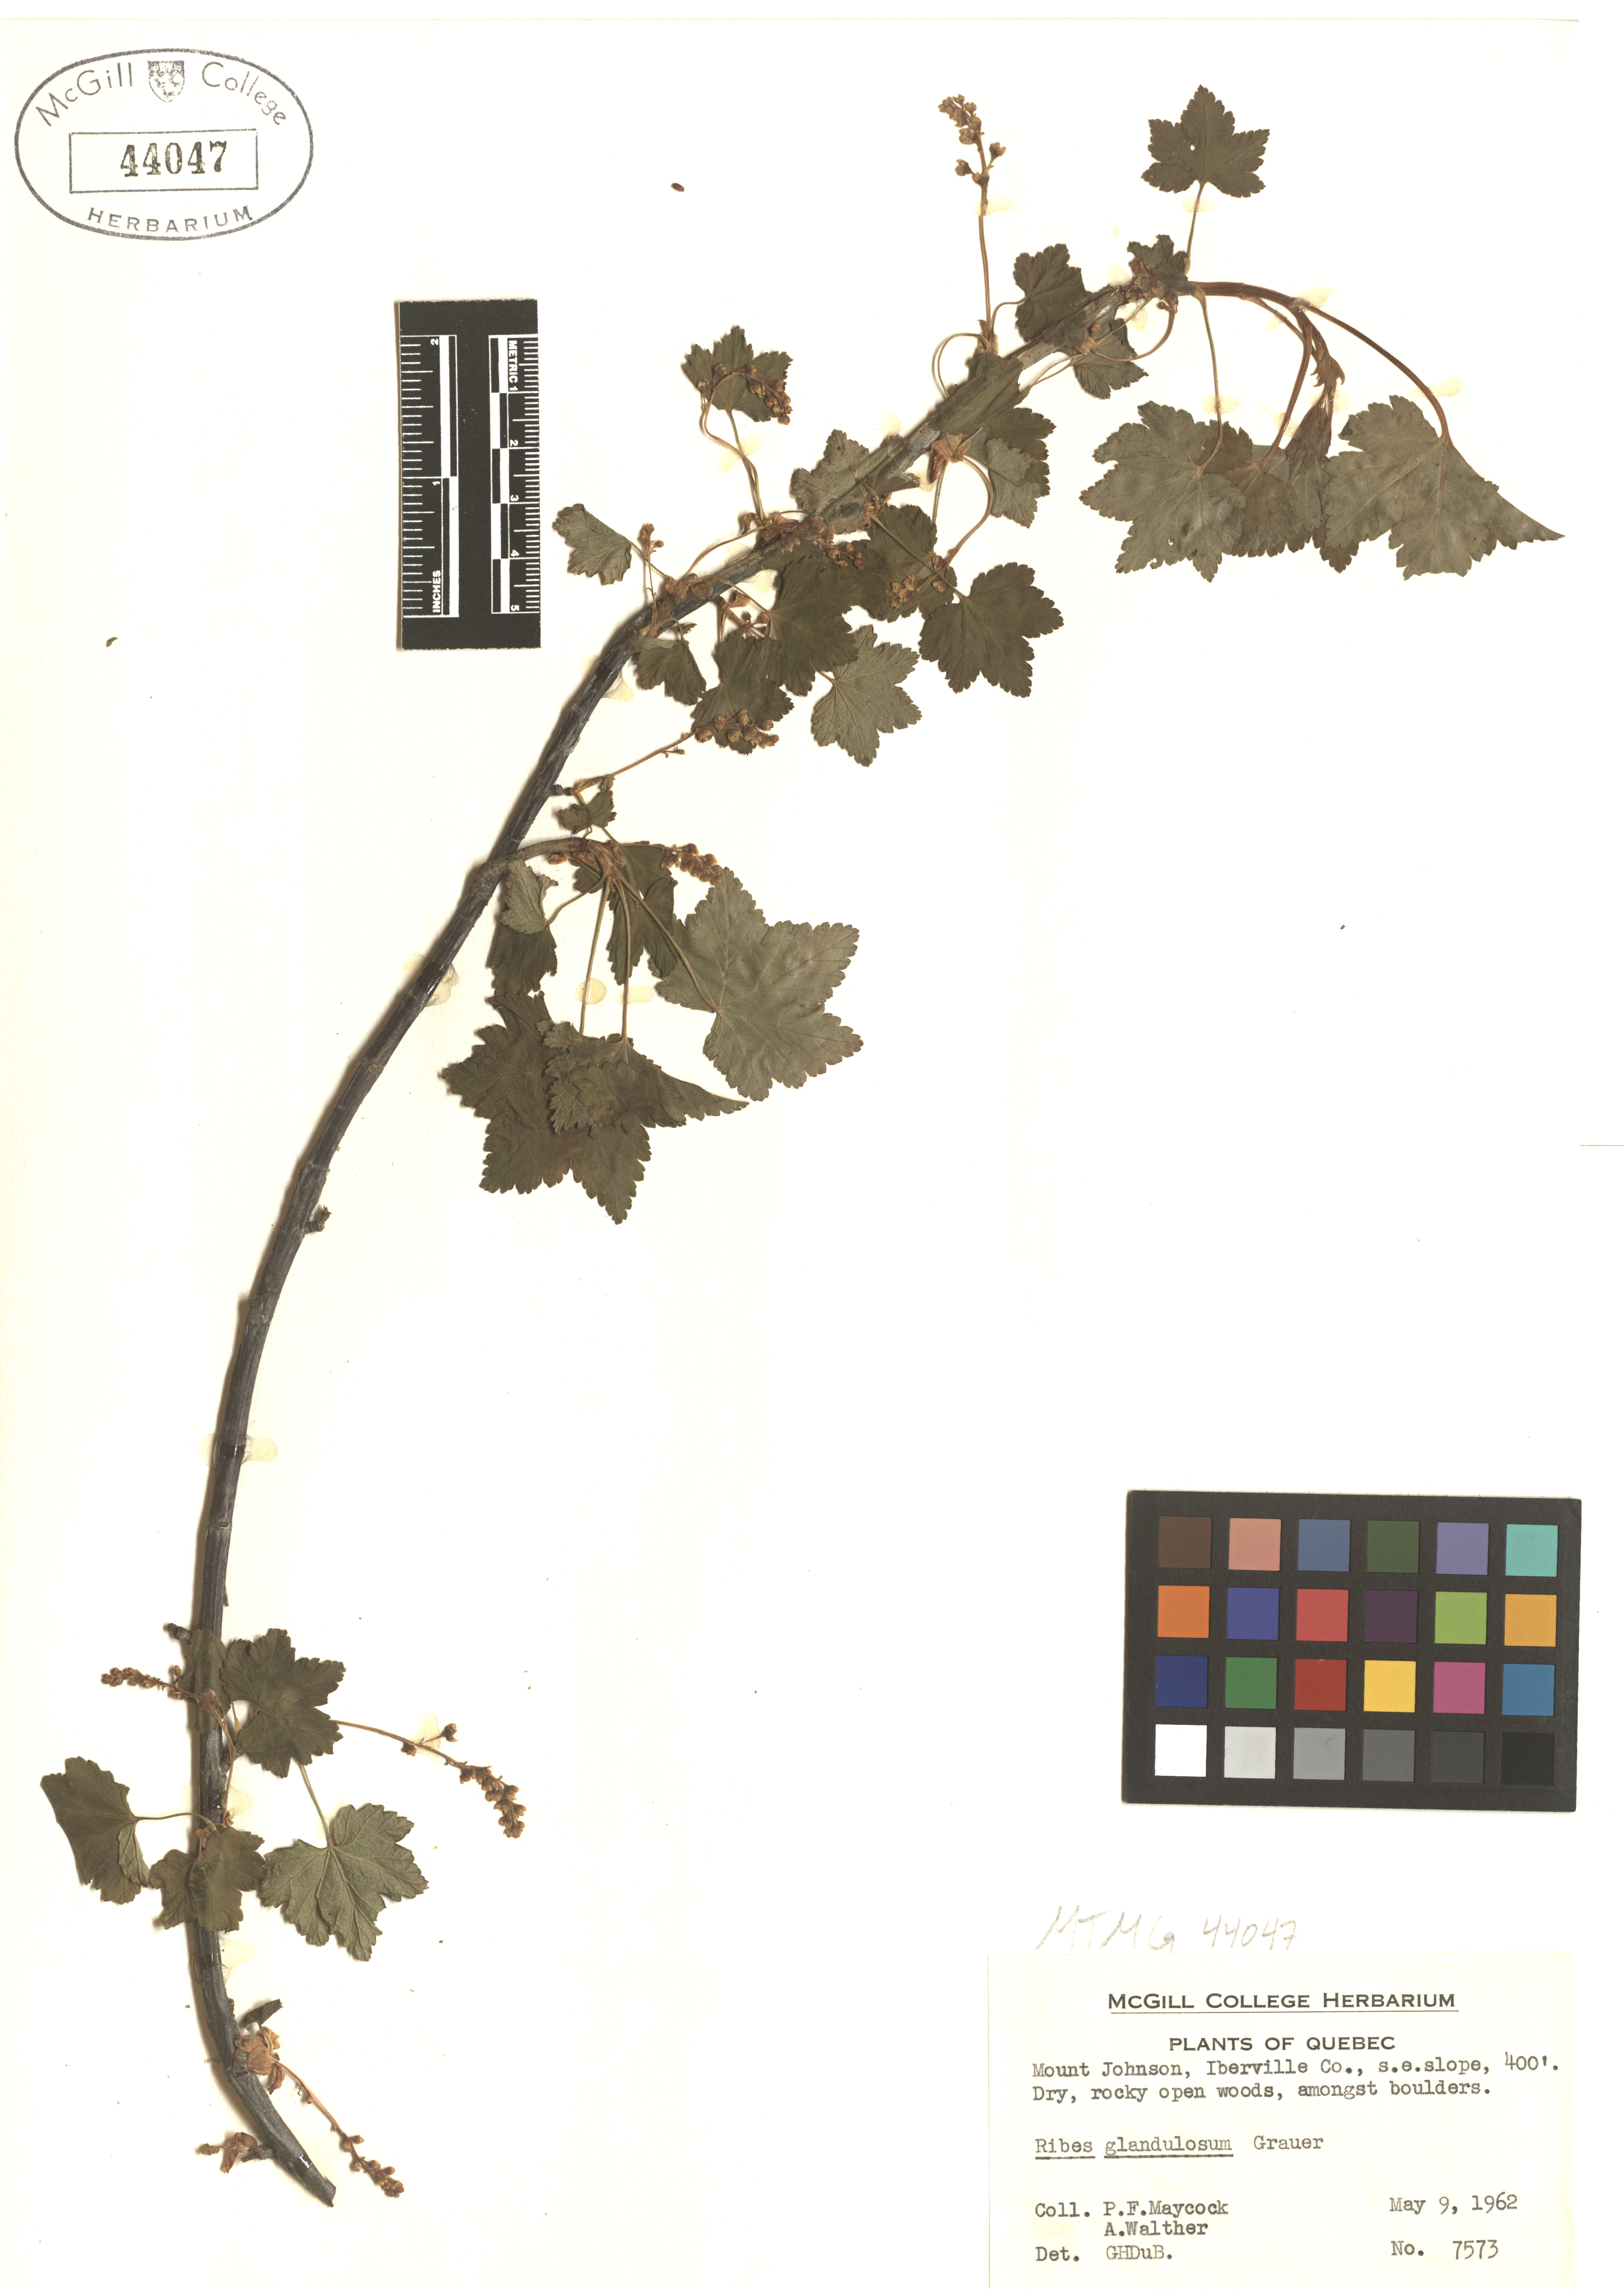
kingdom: Plantae
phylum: Tracheophyta
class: Magnoliopsida
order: Saxifragales
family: Grossulariaceae
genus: Ribes
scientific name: Ribes glandulosum
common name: Skunk currant
